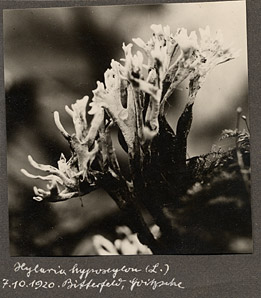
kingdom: Fungi
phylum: Ascomycota
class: Sordariomycetes
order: Xylariales
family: Xylariaceae
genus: Xylaria
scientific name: Xylaria hypoxylon
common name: Candle-snuff fungus
